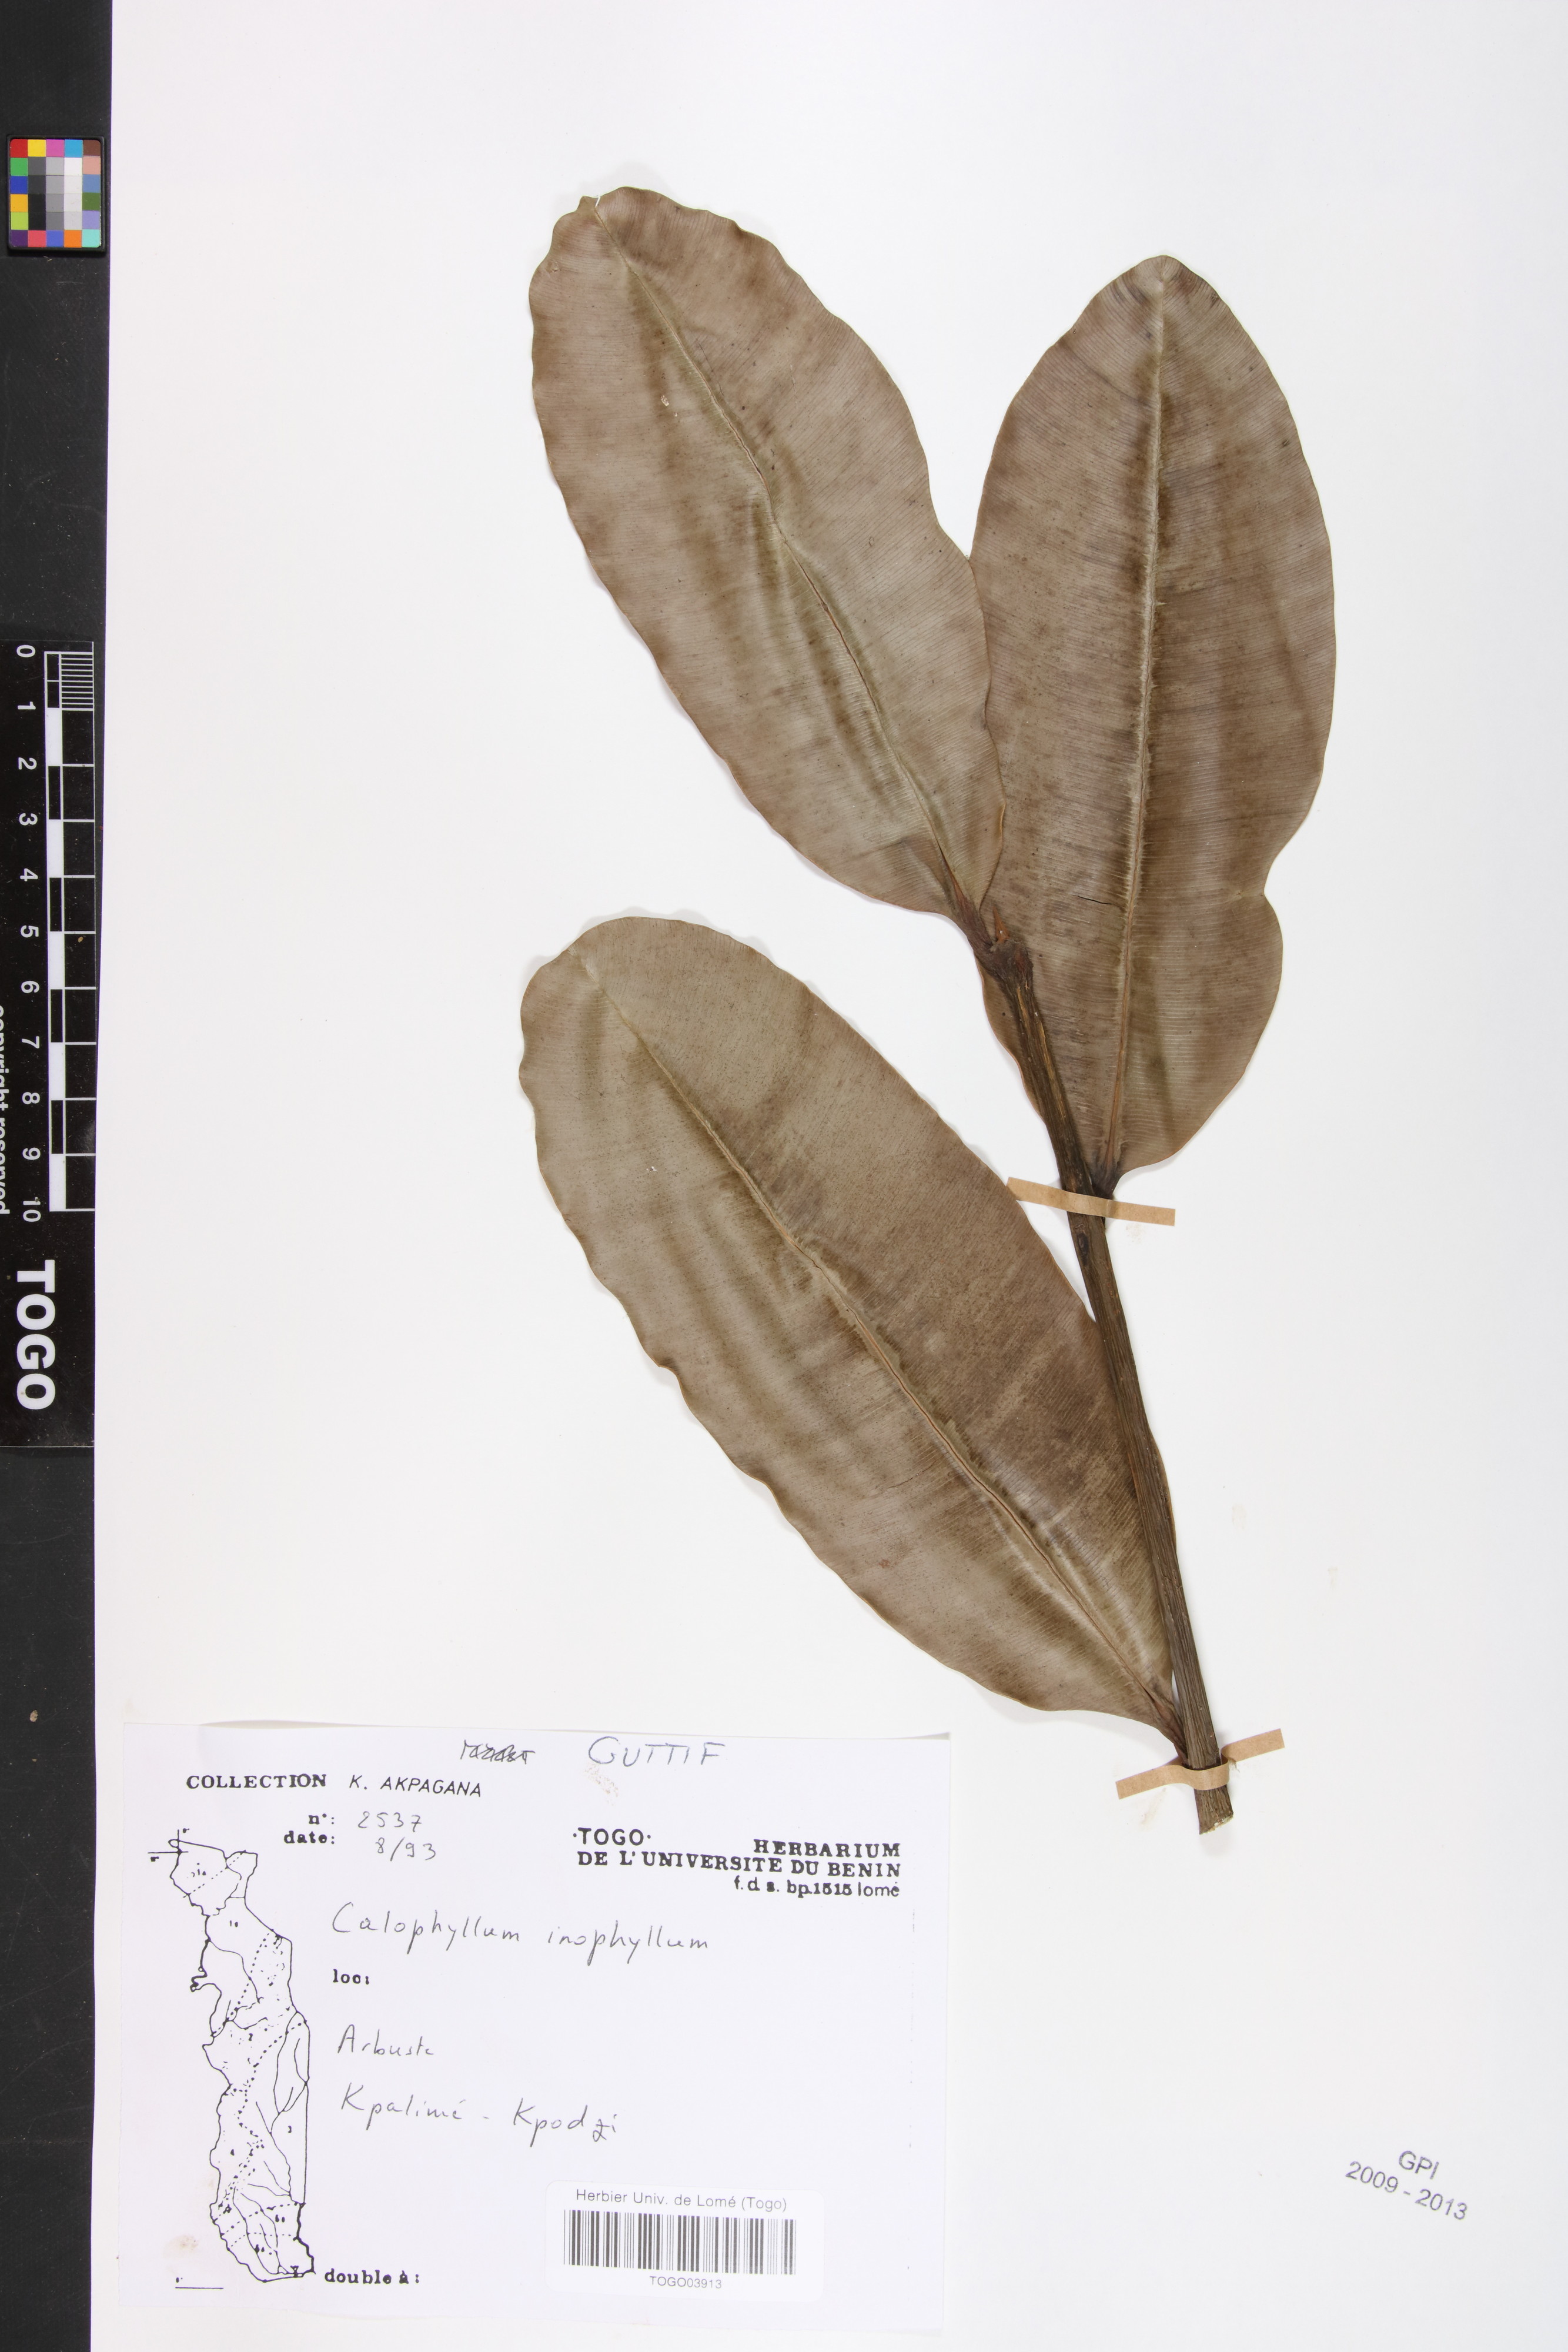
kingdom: Plantae
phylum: Tracheophyta
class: Magnoliopsida
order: Malpighiales
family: Calophyllaceae
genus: Calophyllum
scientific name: Calophyllum inophyllum
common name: Alexandrian laurel
